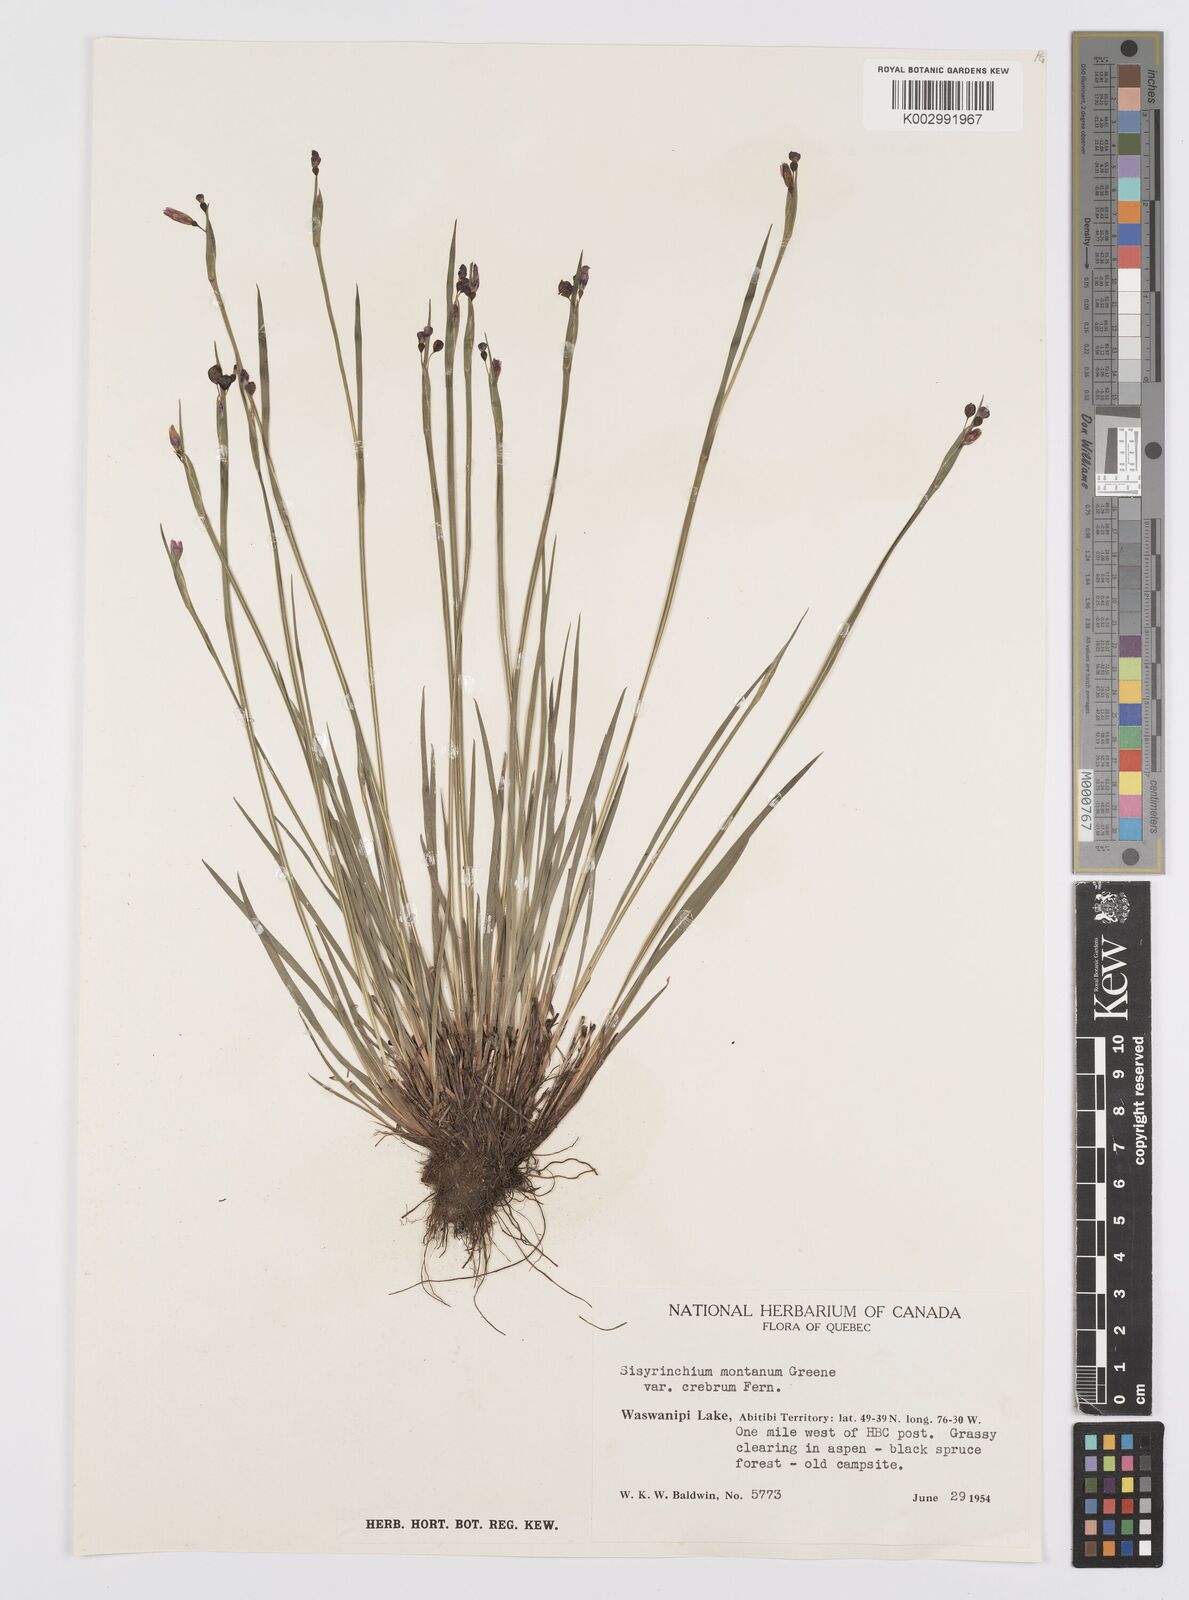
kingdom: Plantae
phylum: Tracheophyta
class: Liliopsida
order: Asparagales
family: Iridaceae
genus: Sisyrinchium
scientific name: Sisyrinchium montanum
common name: American blue-eyed-grass
